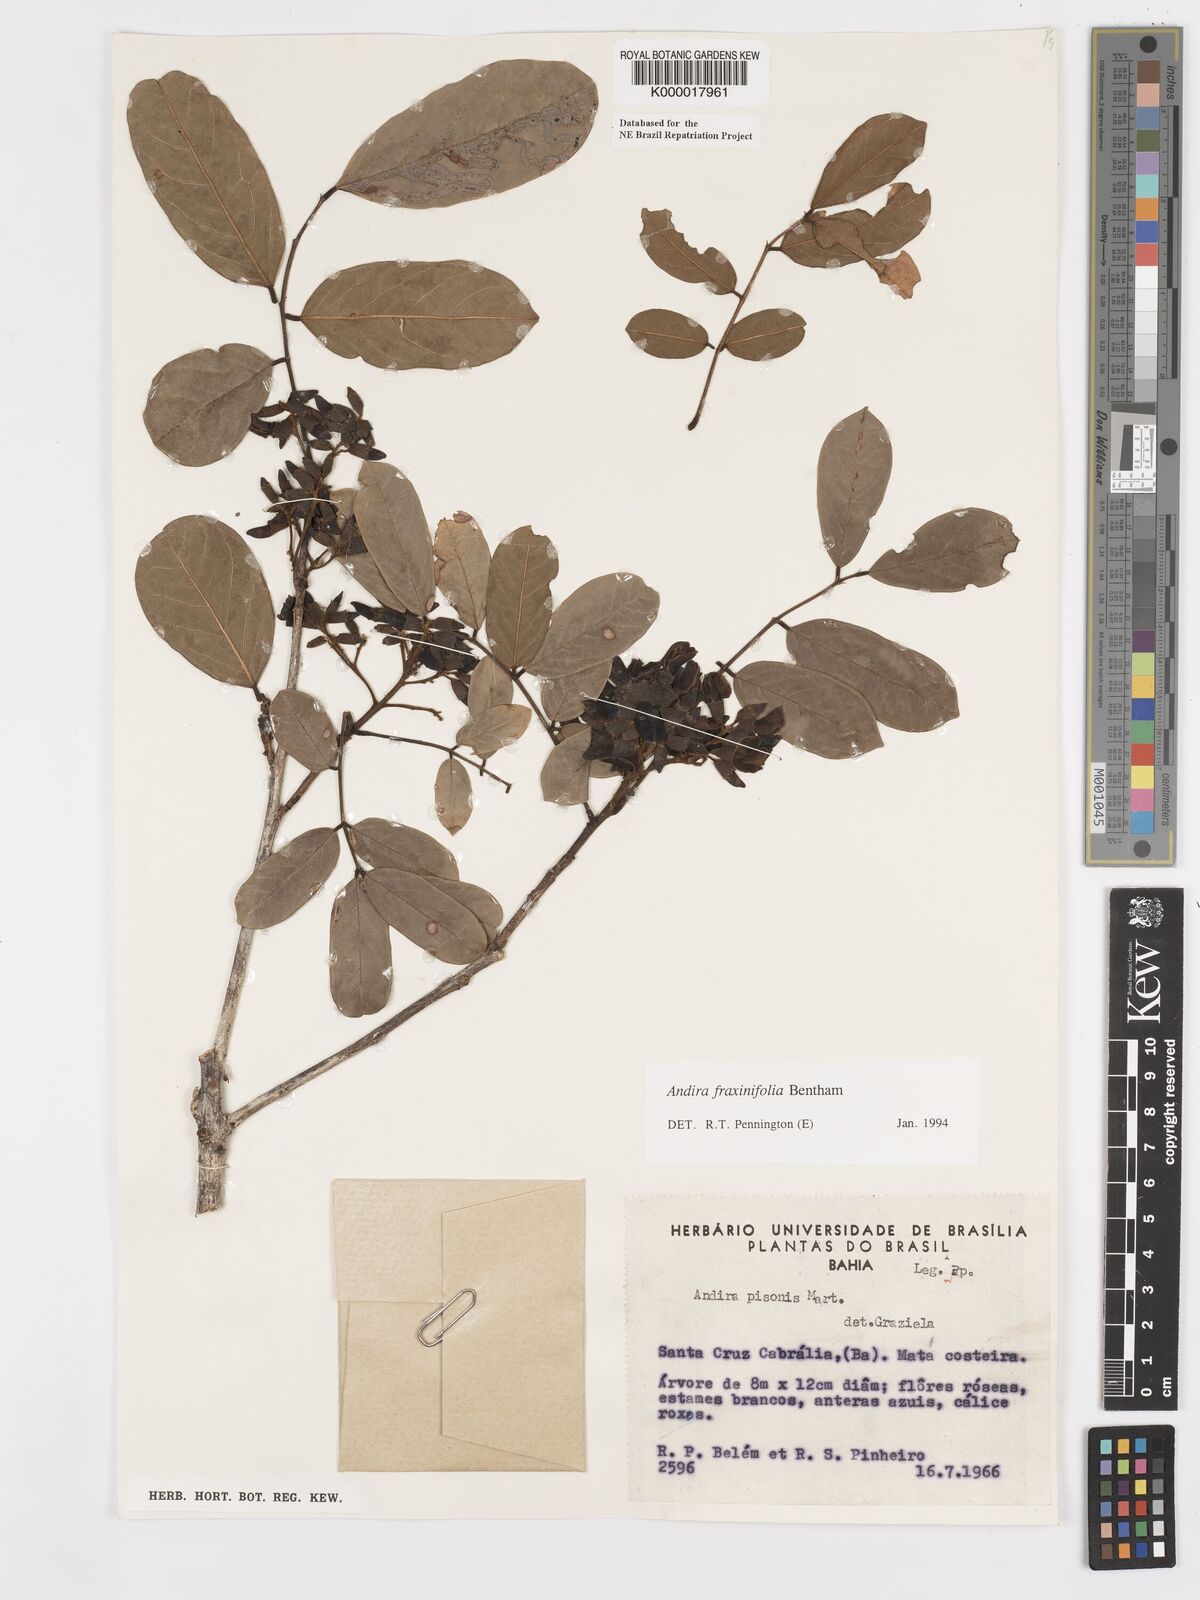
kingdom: Plantae
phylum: Tracheophyta
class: Magnoliopsida
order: Fabales
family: Fabaceae
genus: Andira
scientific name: Andira fraxinifolia
